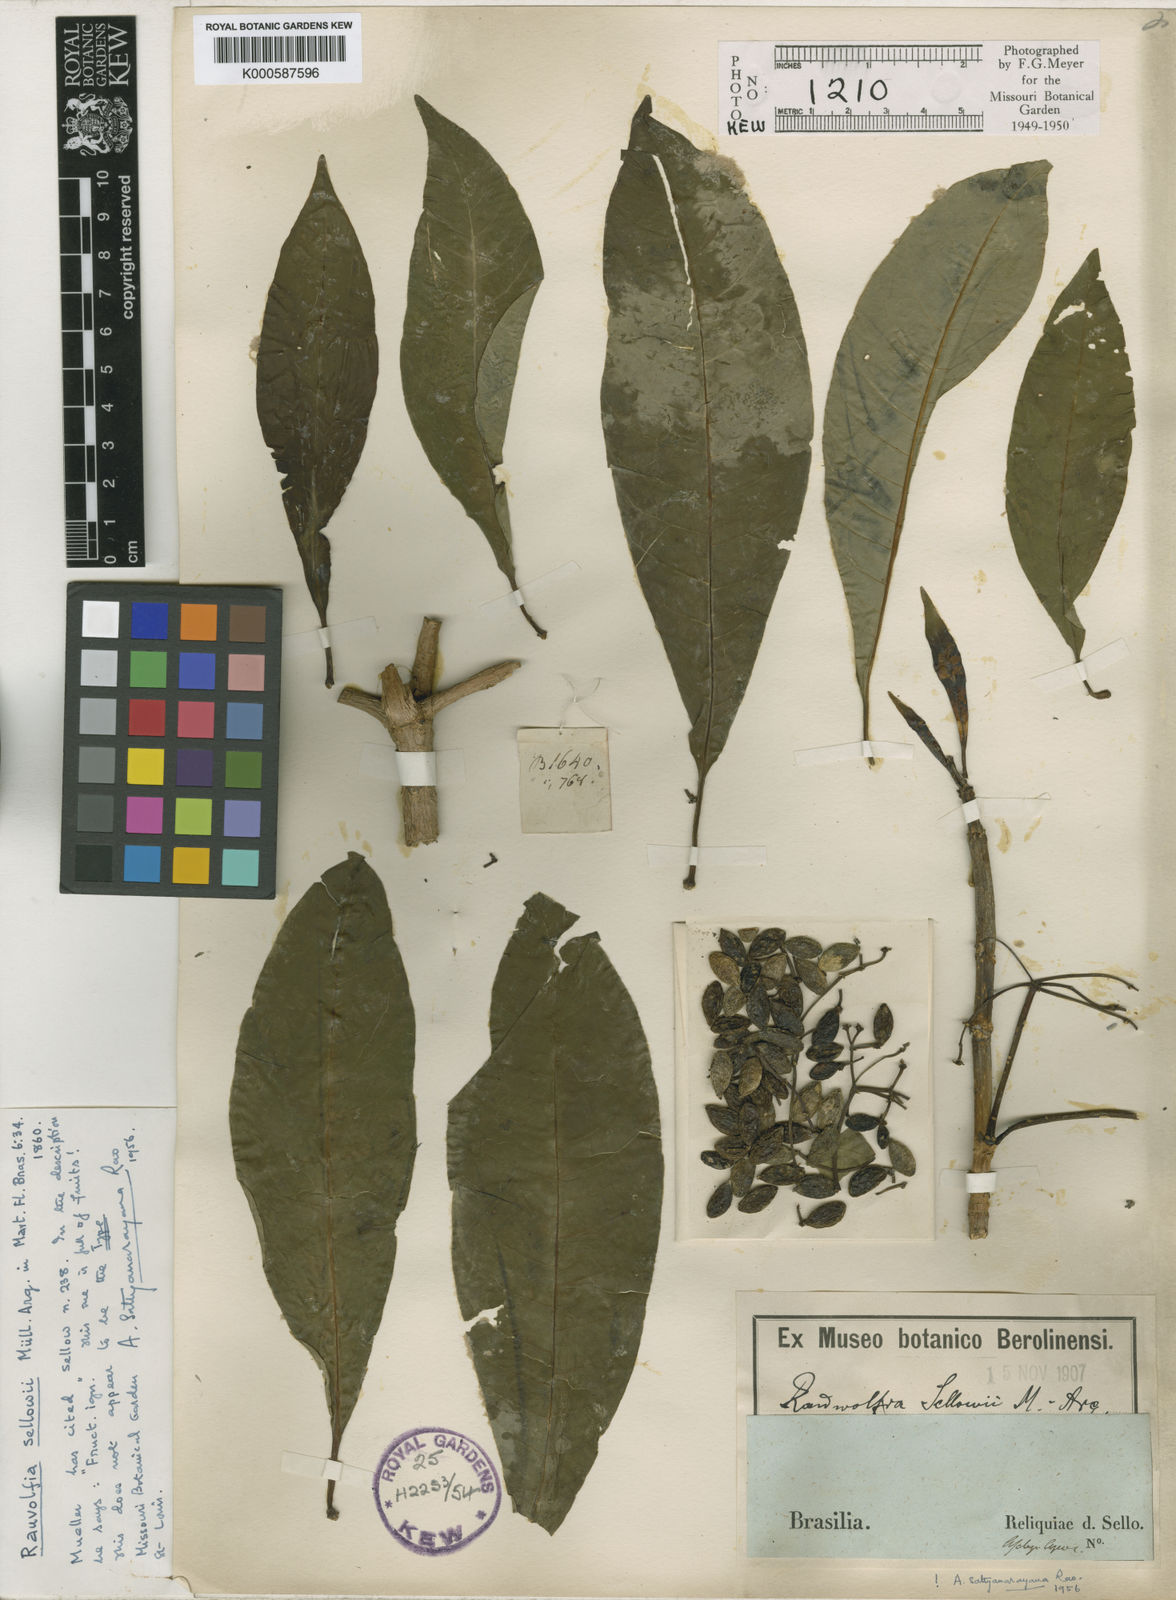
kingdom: Plantae
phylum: Tracheophyta
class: Magnoliopsida
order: Gentianales
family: Apocynaceae
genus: Rauvolfia
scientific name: Rauvolfia
